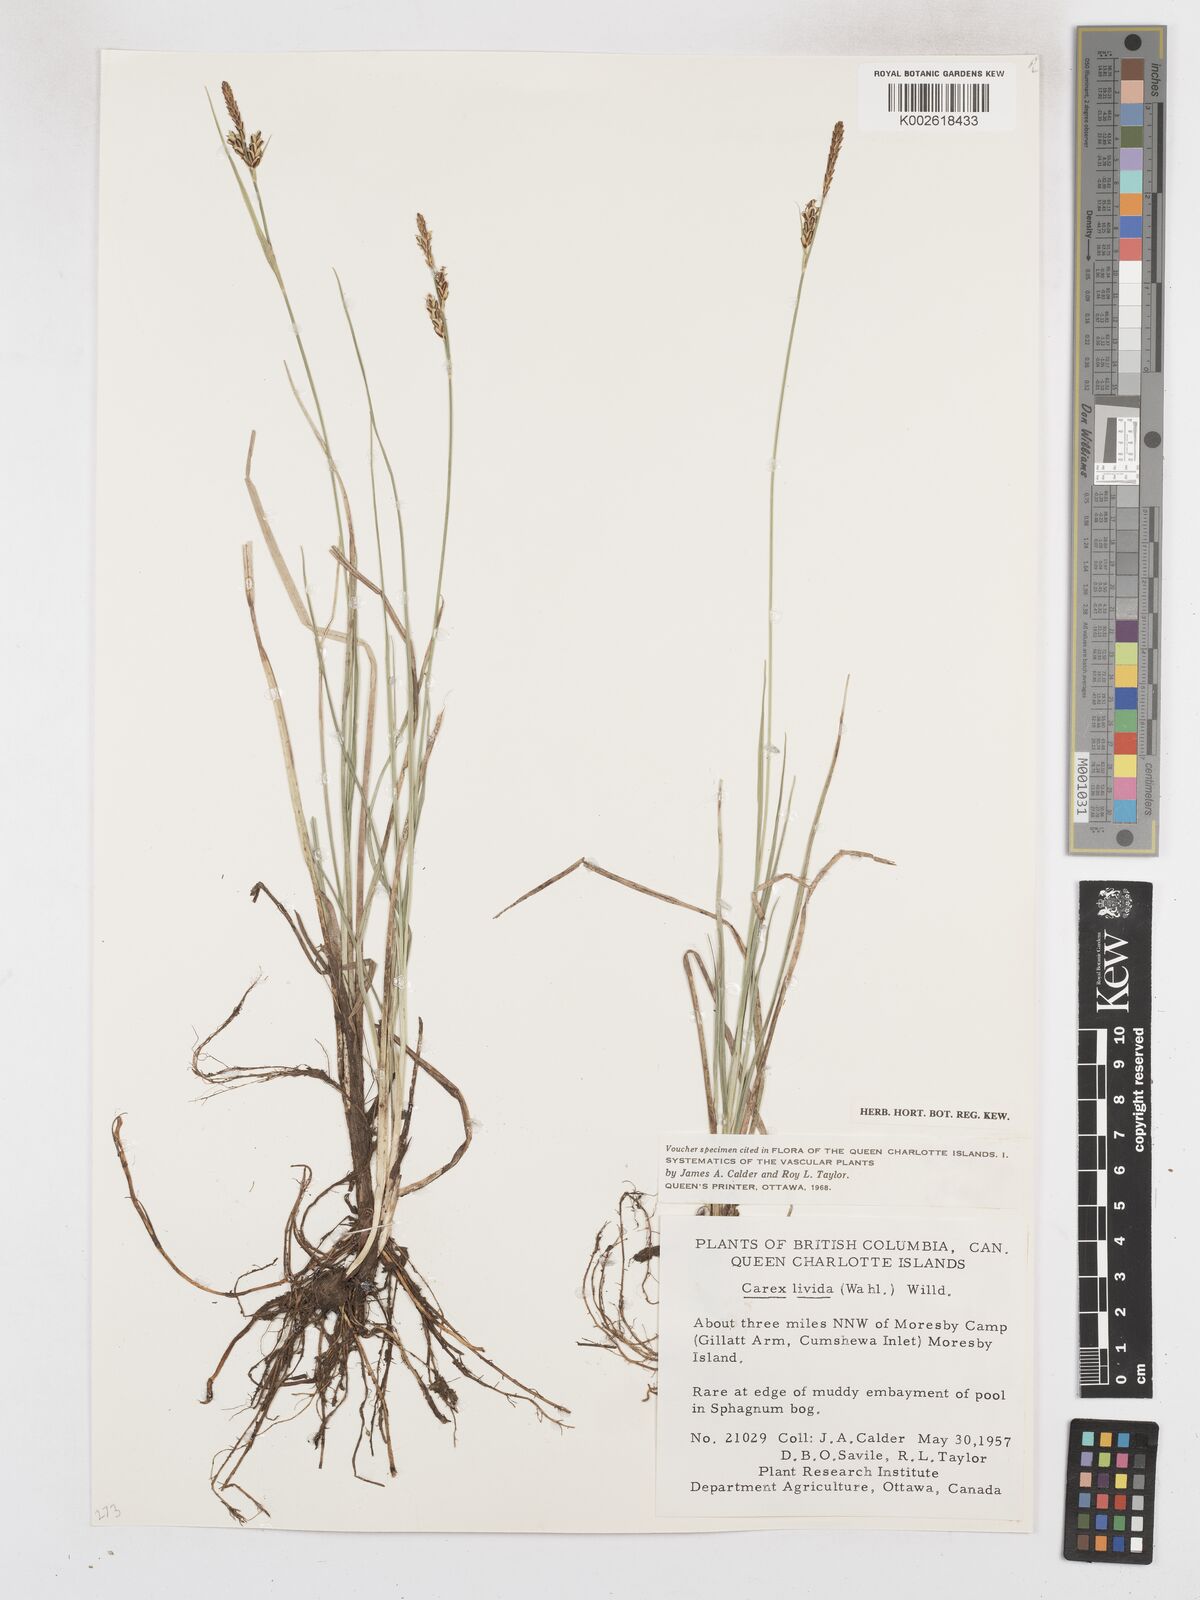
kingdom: Plantae
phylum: Tracheophyta
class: Liliopsida
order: Poales
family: Cyperaceae
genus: Carex
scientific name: Carex livida
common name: Livid sedge
